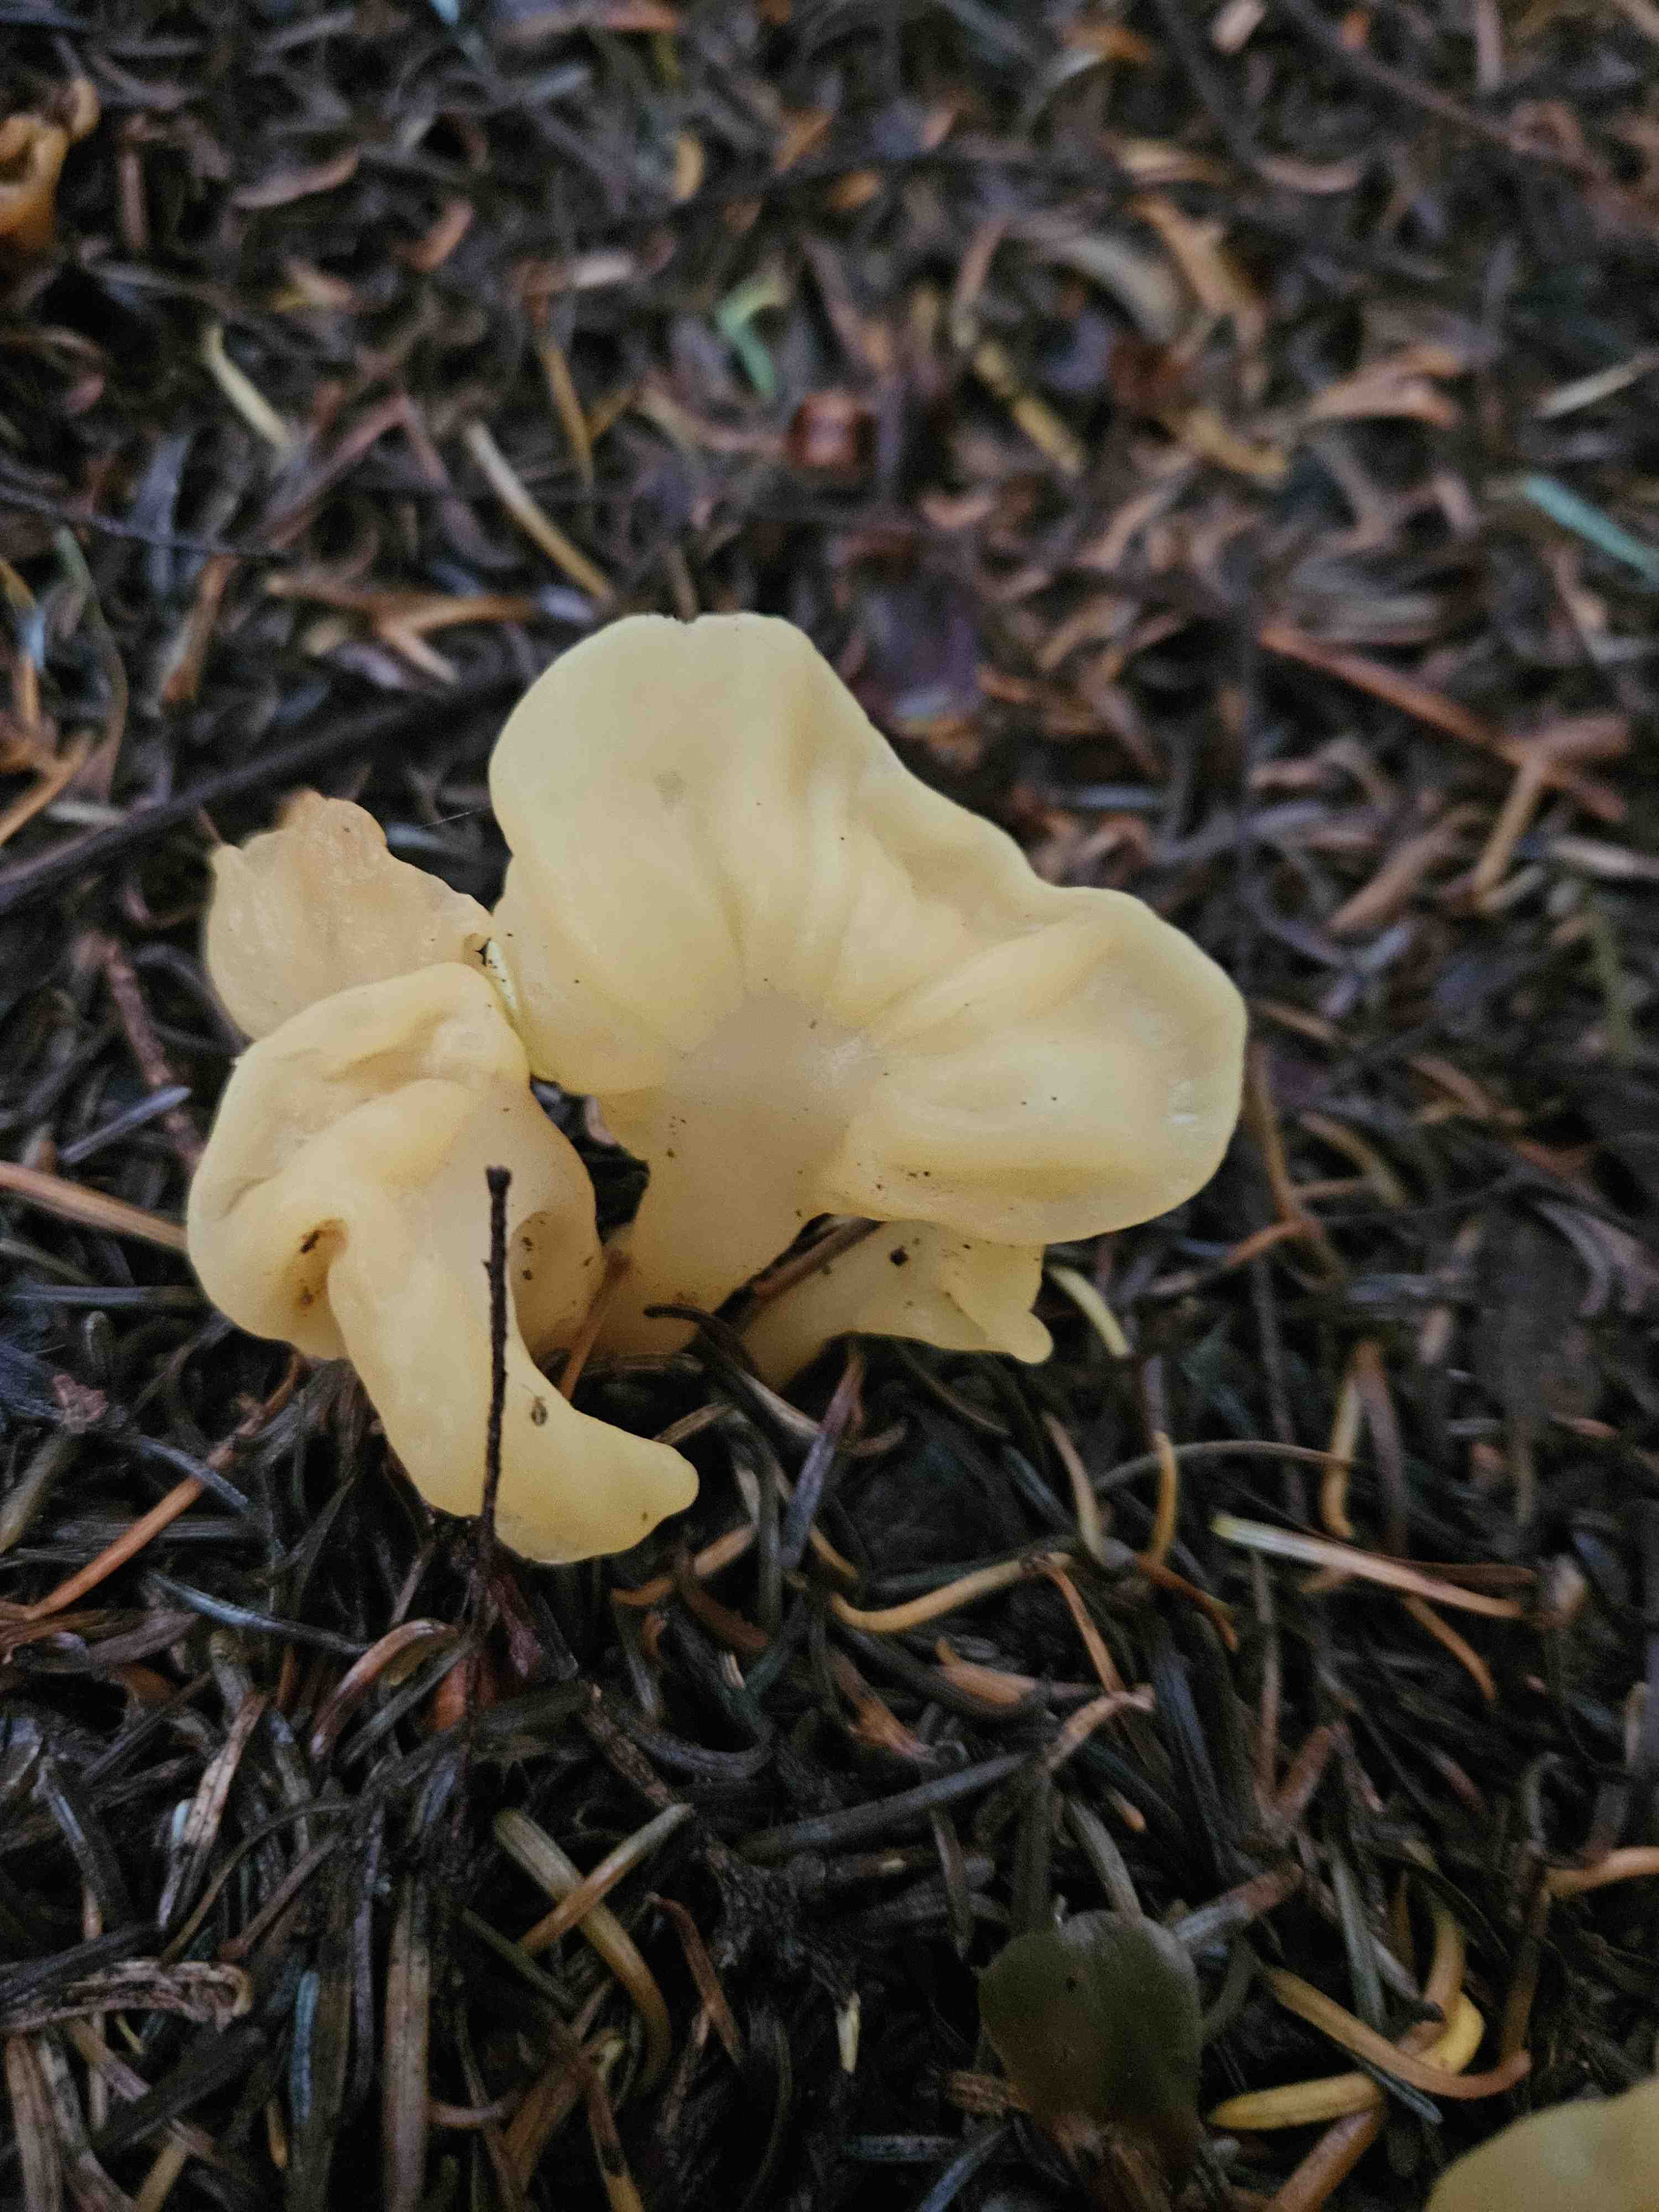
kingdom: Fungi
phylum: Ascomycota
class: Leotiomycetes
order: Rhytismatales
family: Cudoniaceae
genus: Spathularia
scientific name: Spathularia flavida
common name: gul spatelsvamp
